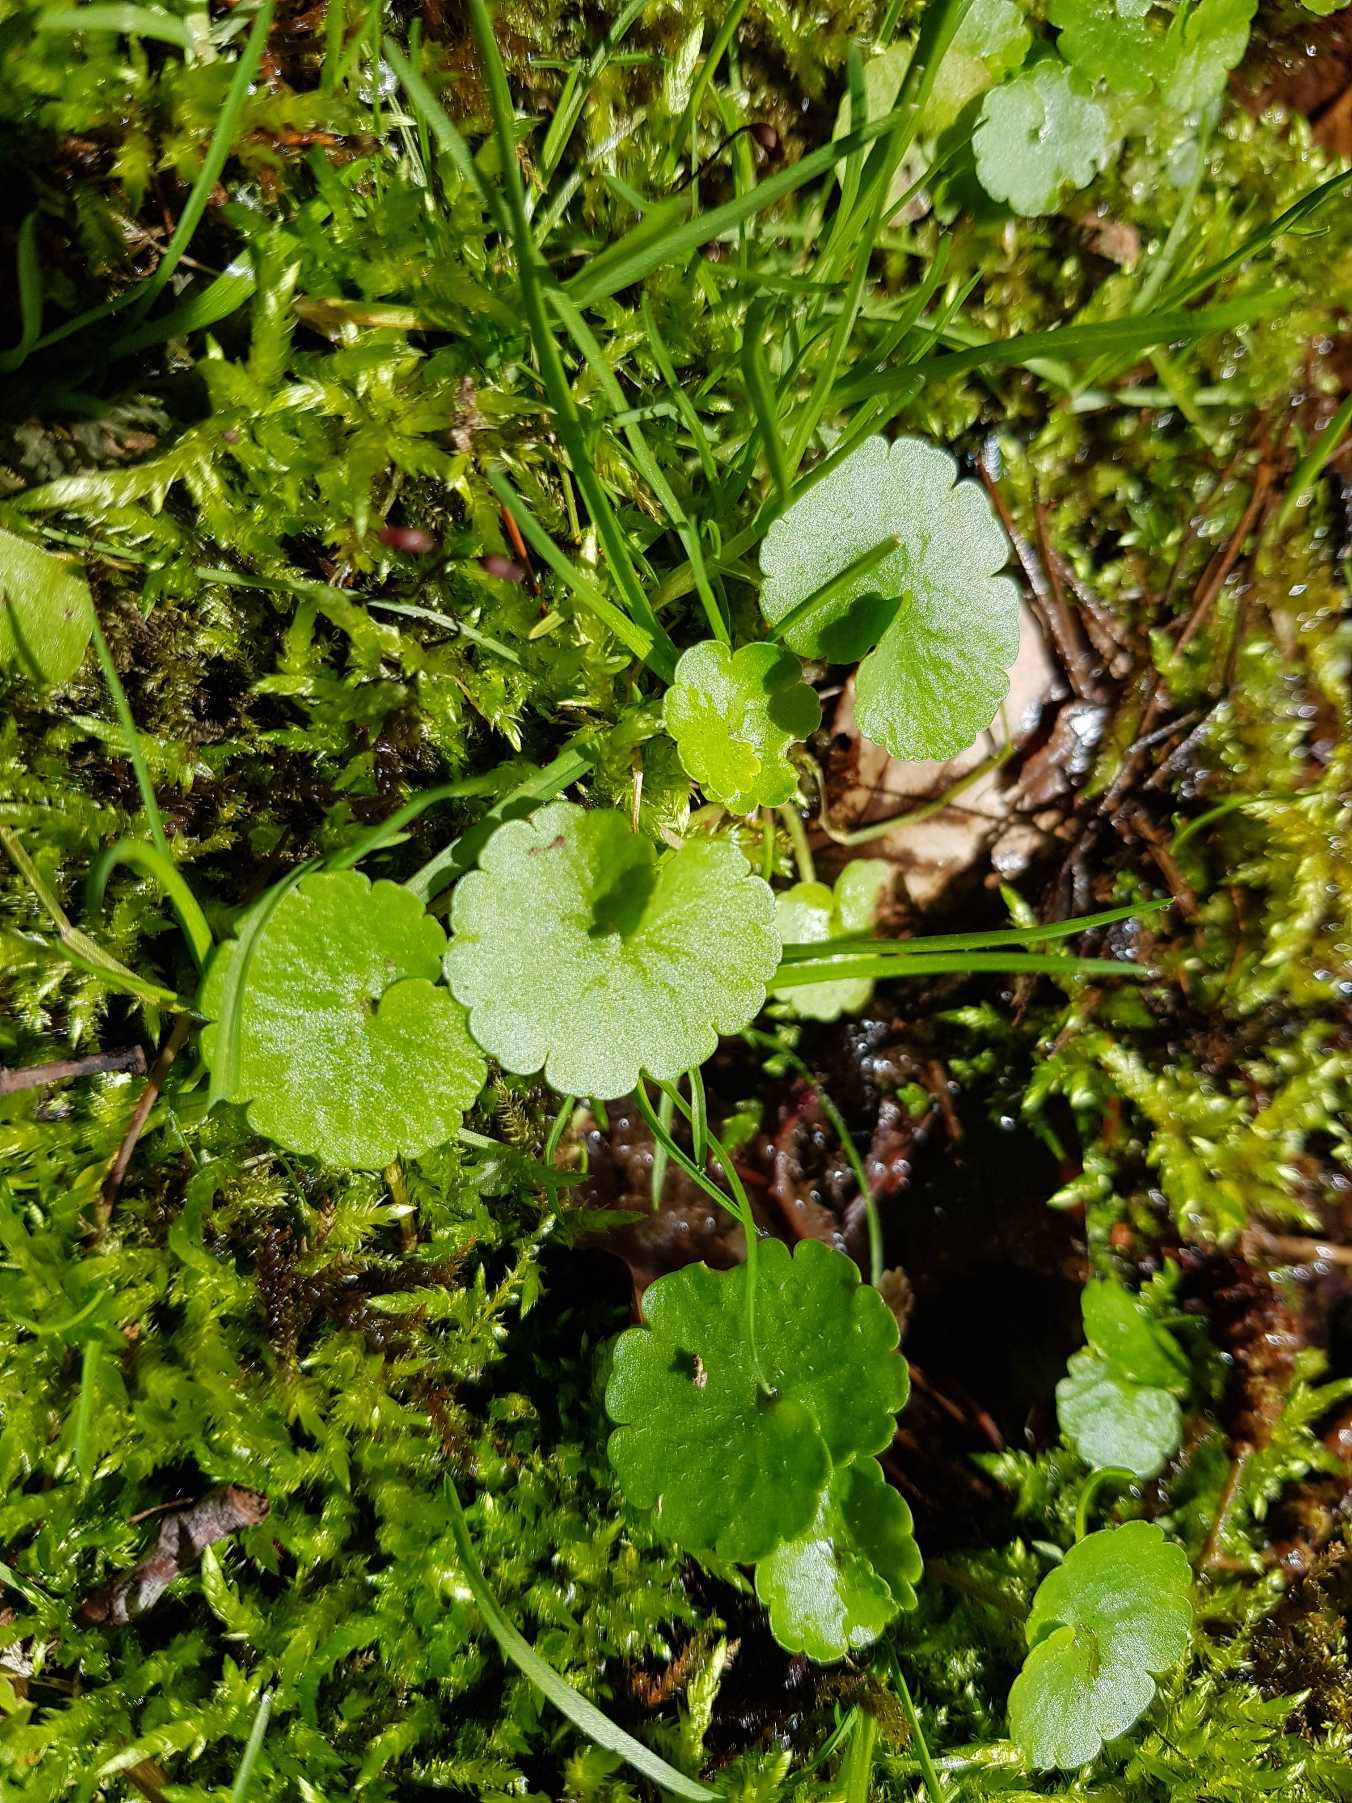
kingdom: Plantae
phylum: Tracheophyta
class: Magnoliopsida
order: Saxifragales
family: Saxifragaceae
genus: Chrysosplenium
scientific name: Chrysosplenium alternifolium
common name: Almindelig milturt
